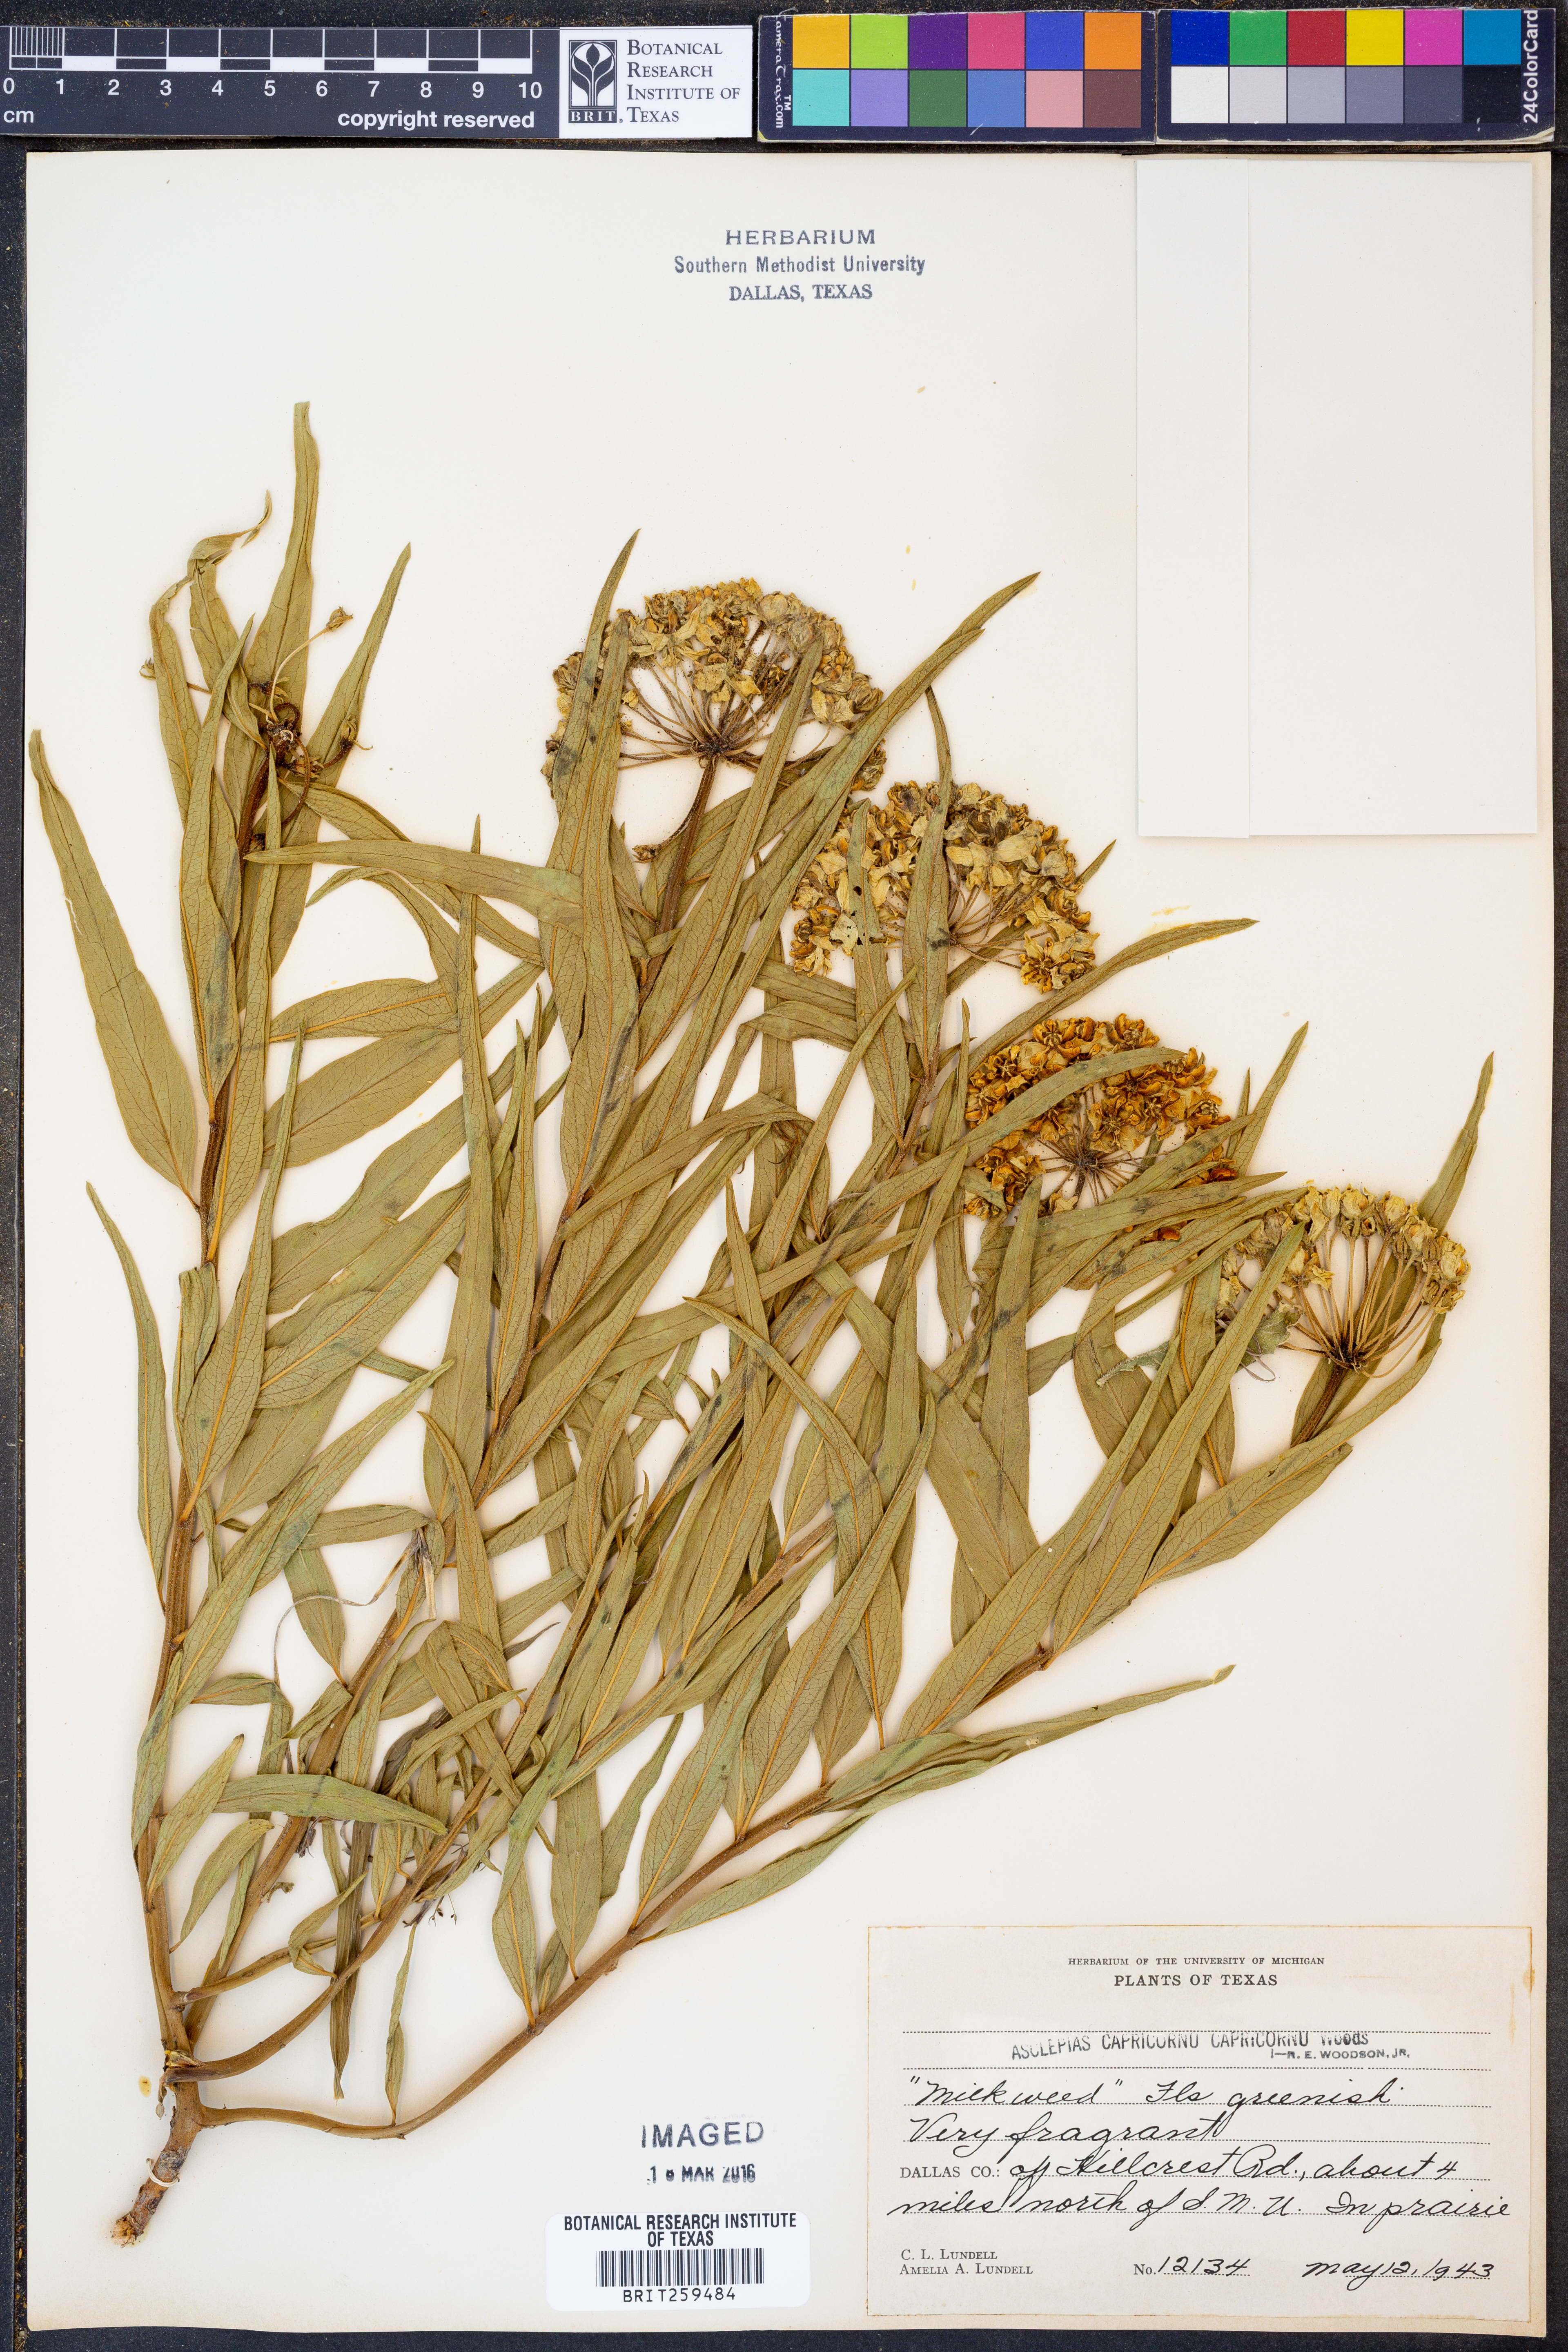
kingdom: Plantae
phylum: Tracheophyta
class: Magnoliopsida
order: Gentianales
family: Apocynaceae
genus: Asclepias
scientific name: Asclepias asperula
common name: Antelope horns
